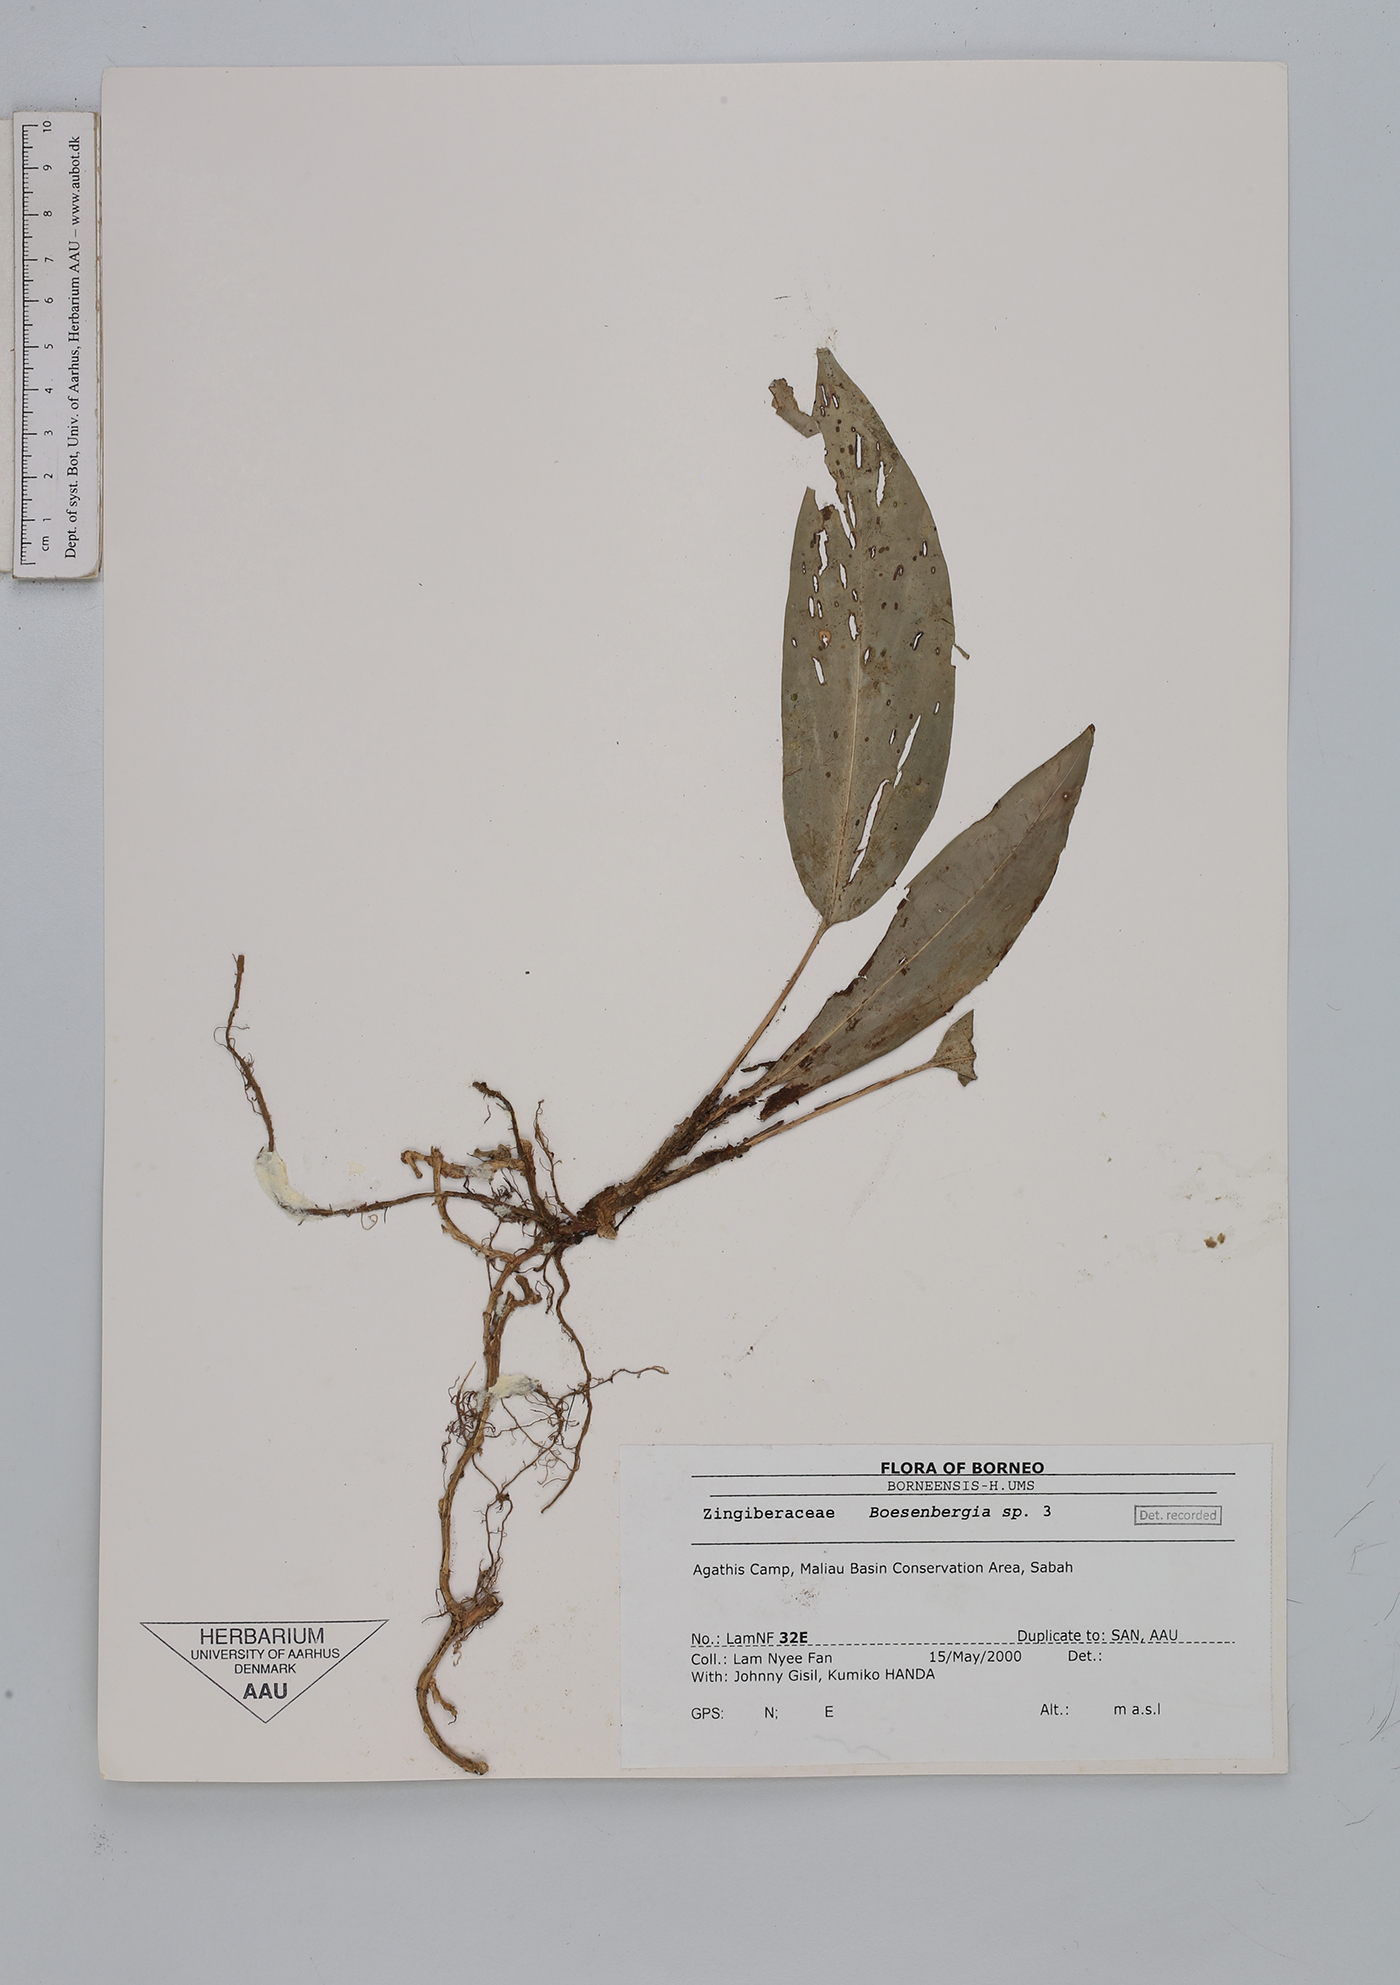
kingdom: Plantae
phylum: Tracheophyta
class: Liliopsida
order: Zingiberales
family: Zingiberaceae
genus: Boesenbergia
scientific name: Boesenbergia
